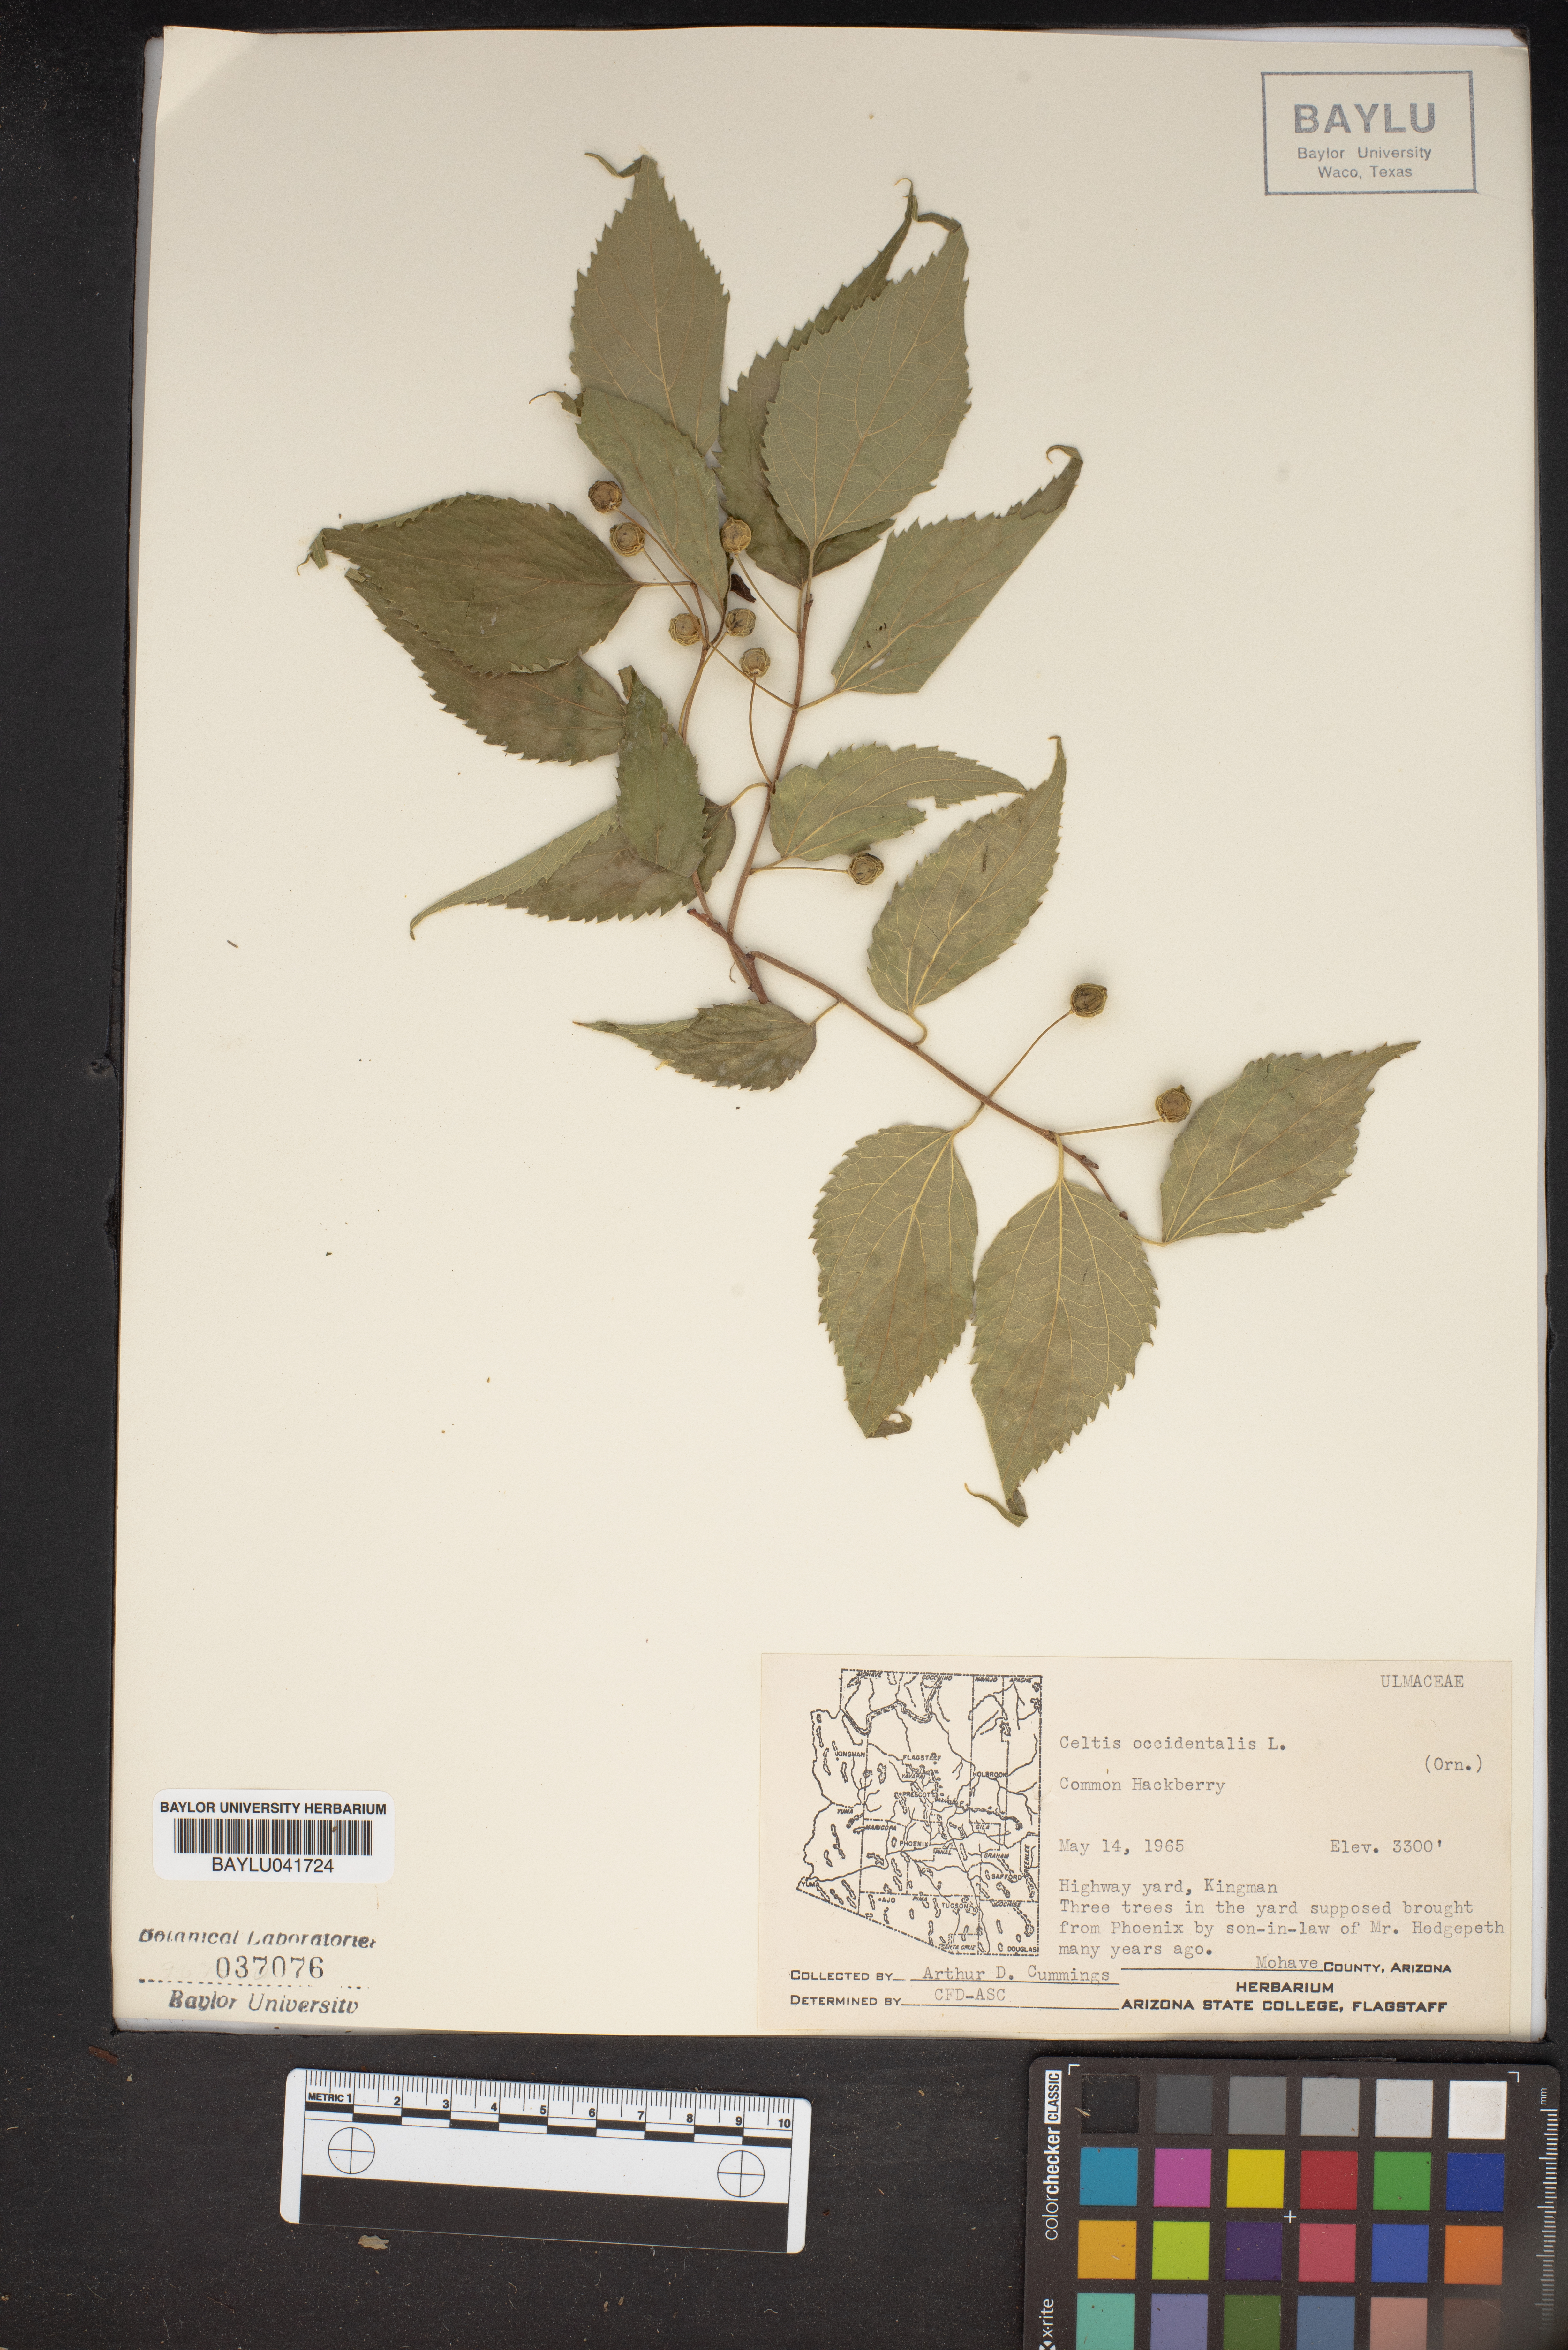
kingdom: Plantae
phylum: Tracheophyta
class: Magnoliopsida
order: Rosales
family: Cannabaceae
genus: Celtis
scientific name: Celtis occidentalis
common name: Common hackberry
